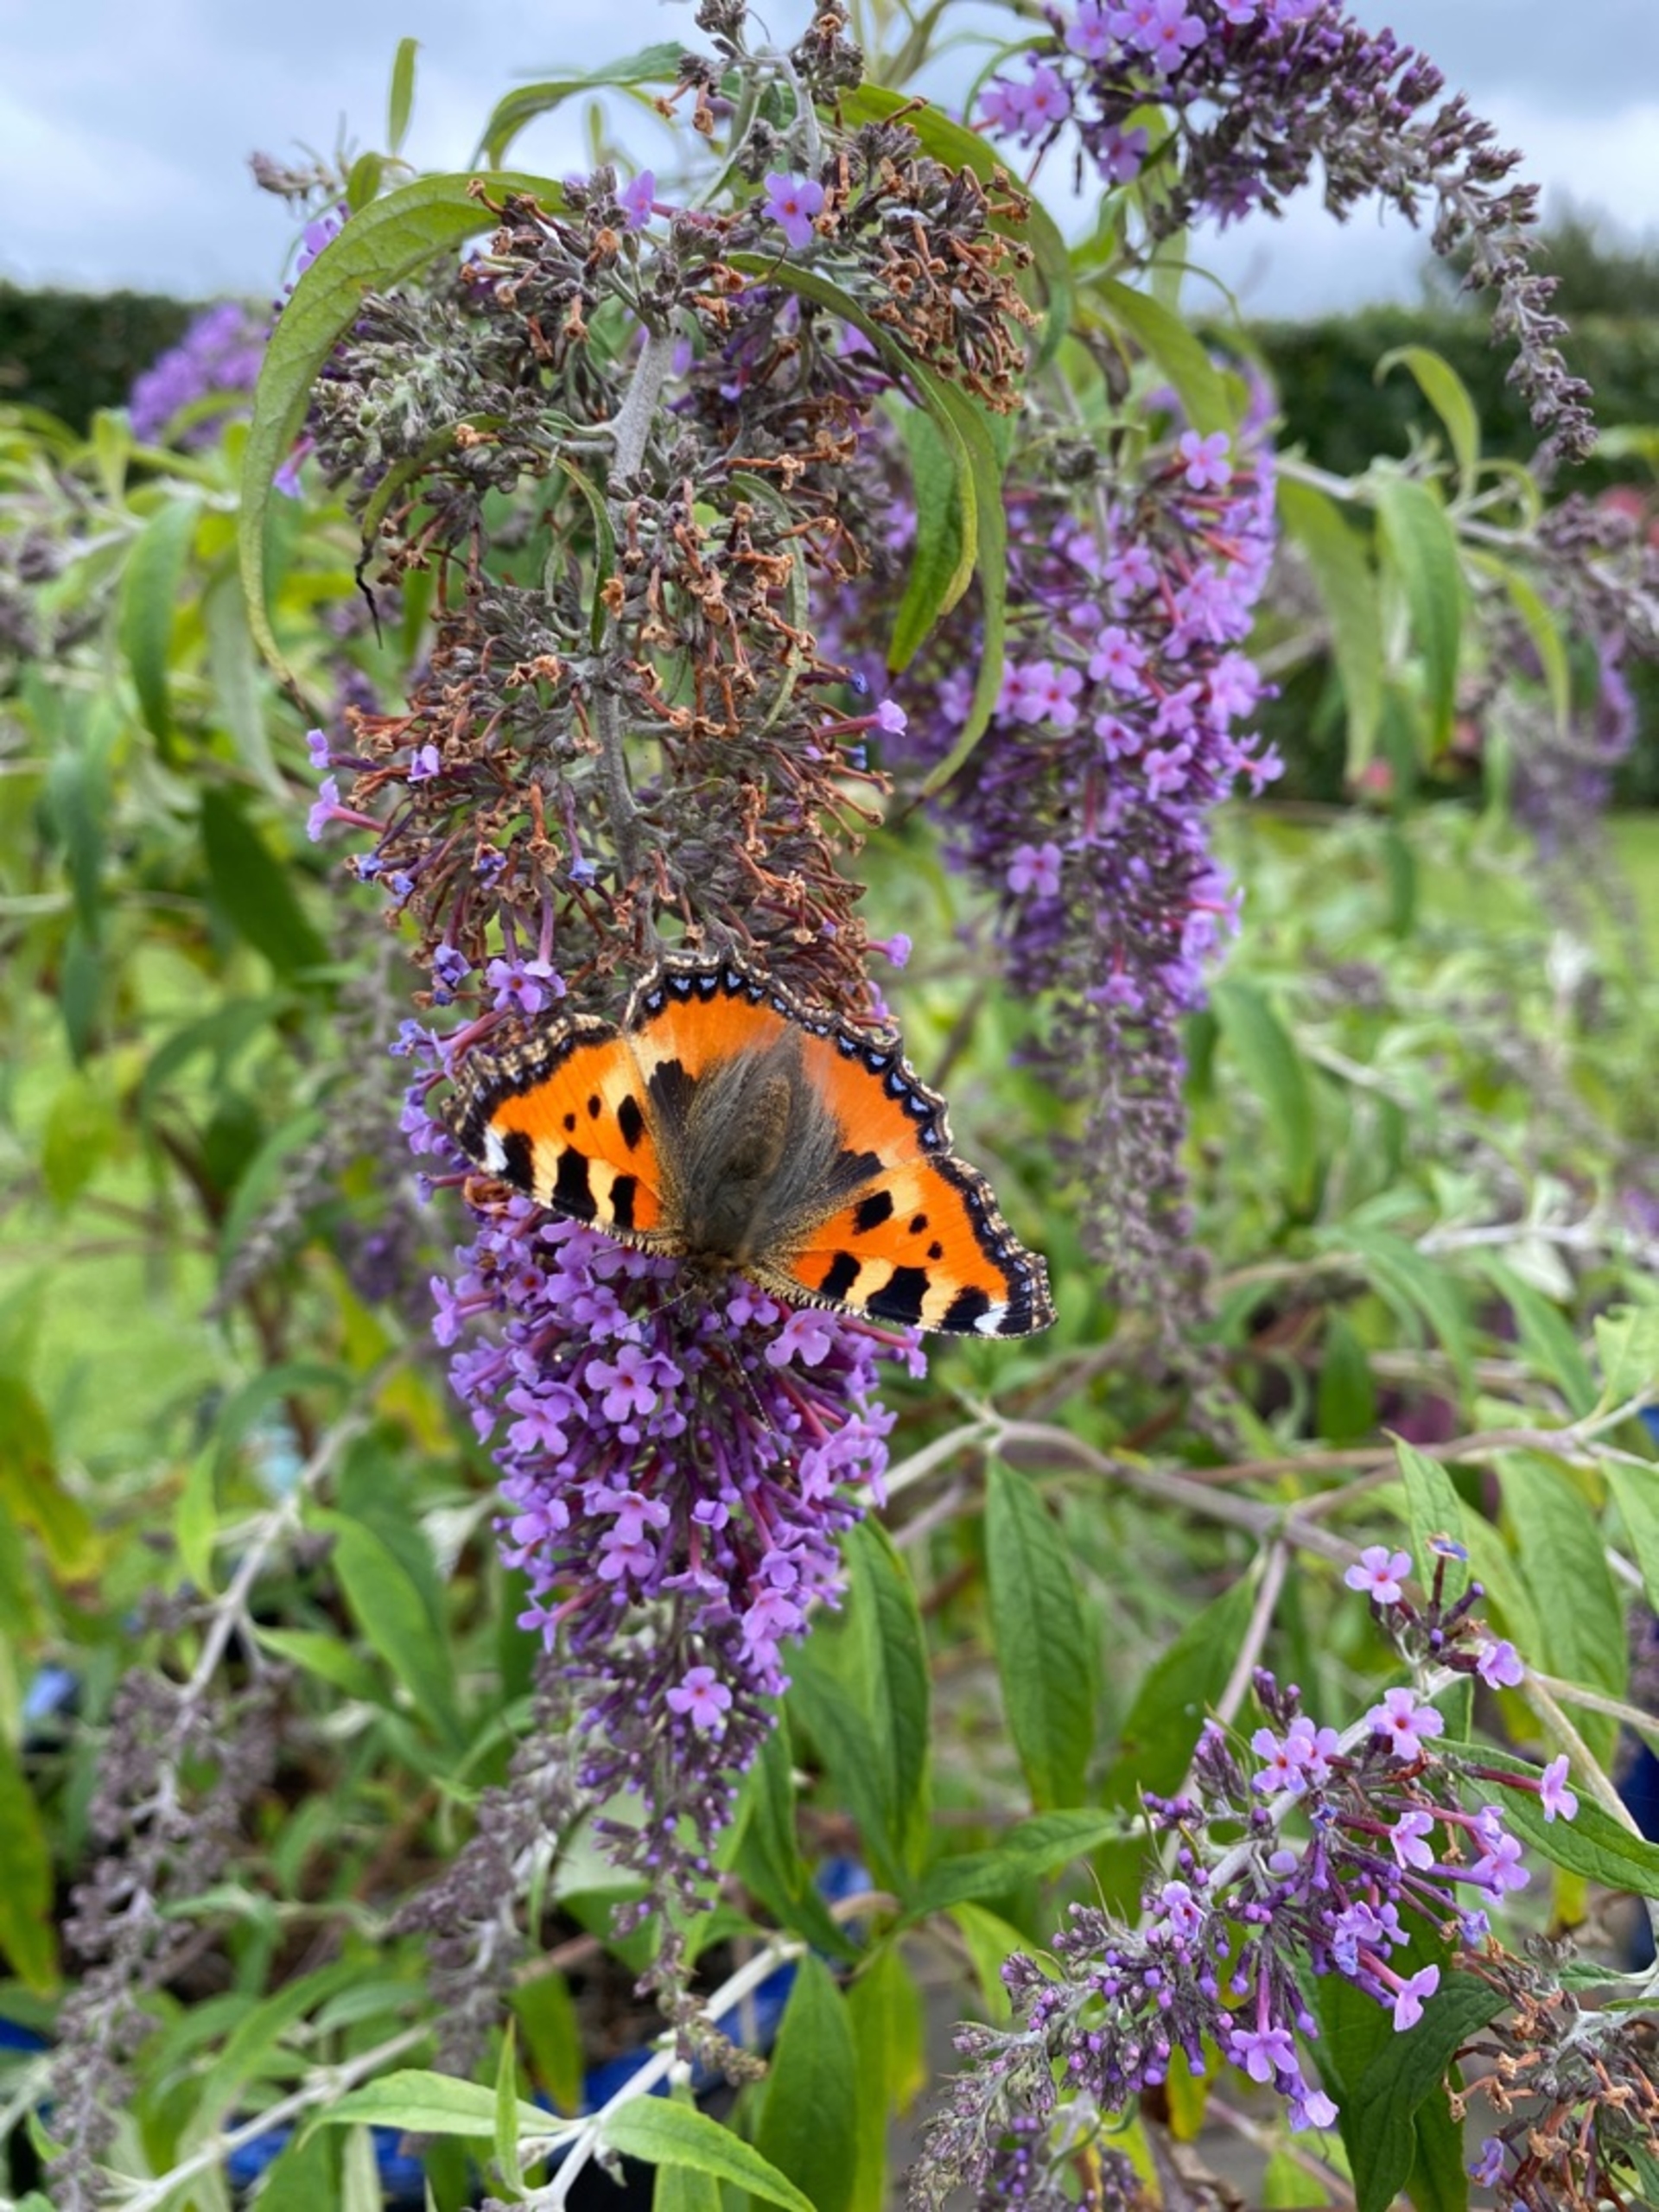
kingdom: Animalia
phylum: Arthropoda
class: Insecta
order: Lepidoptera
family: Nymphalidae
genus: Aglais
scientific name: Aglais urticae
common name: Nældens takvinge
